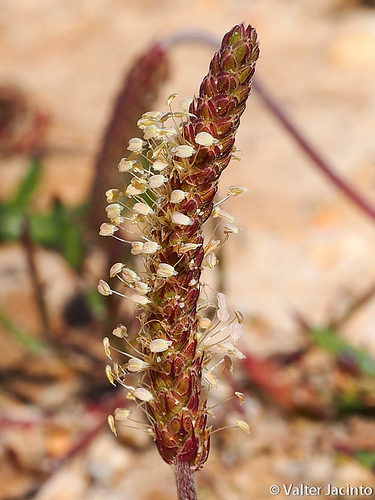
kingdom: Plantae
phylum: Tracheophyta
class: Magnoliopsida
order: Lamiales
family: Plantaginaceae
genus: Plantago
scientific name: Plantago coronopus
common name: Buck's-horn plantain
